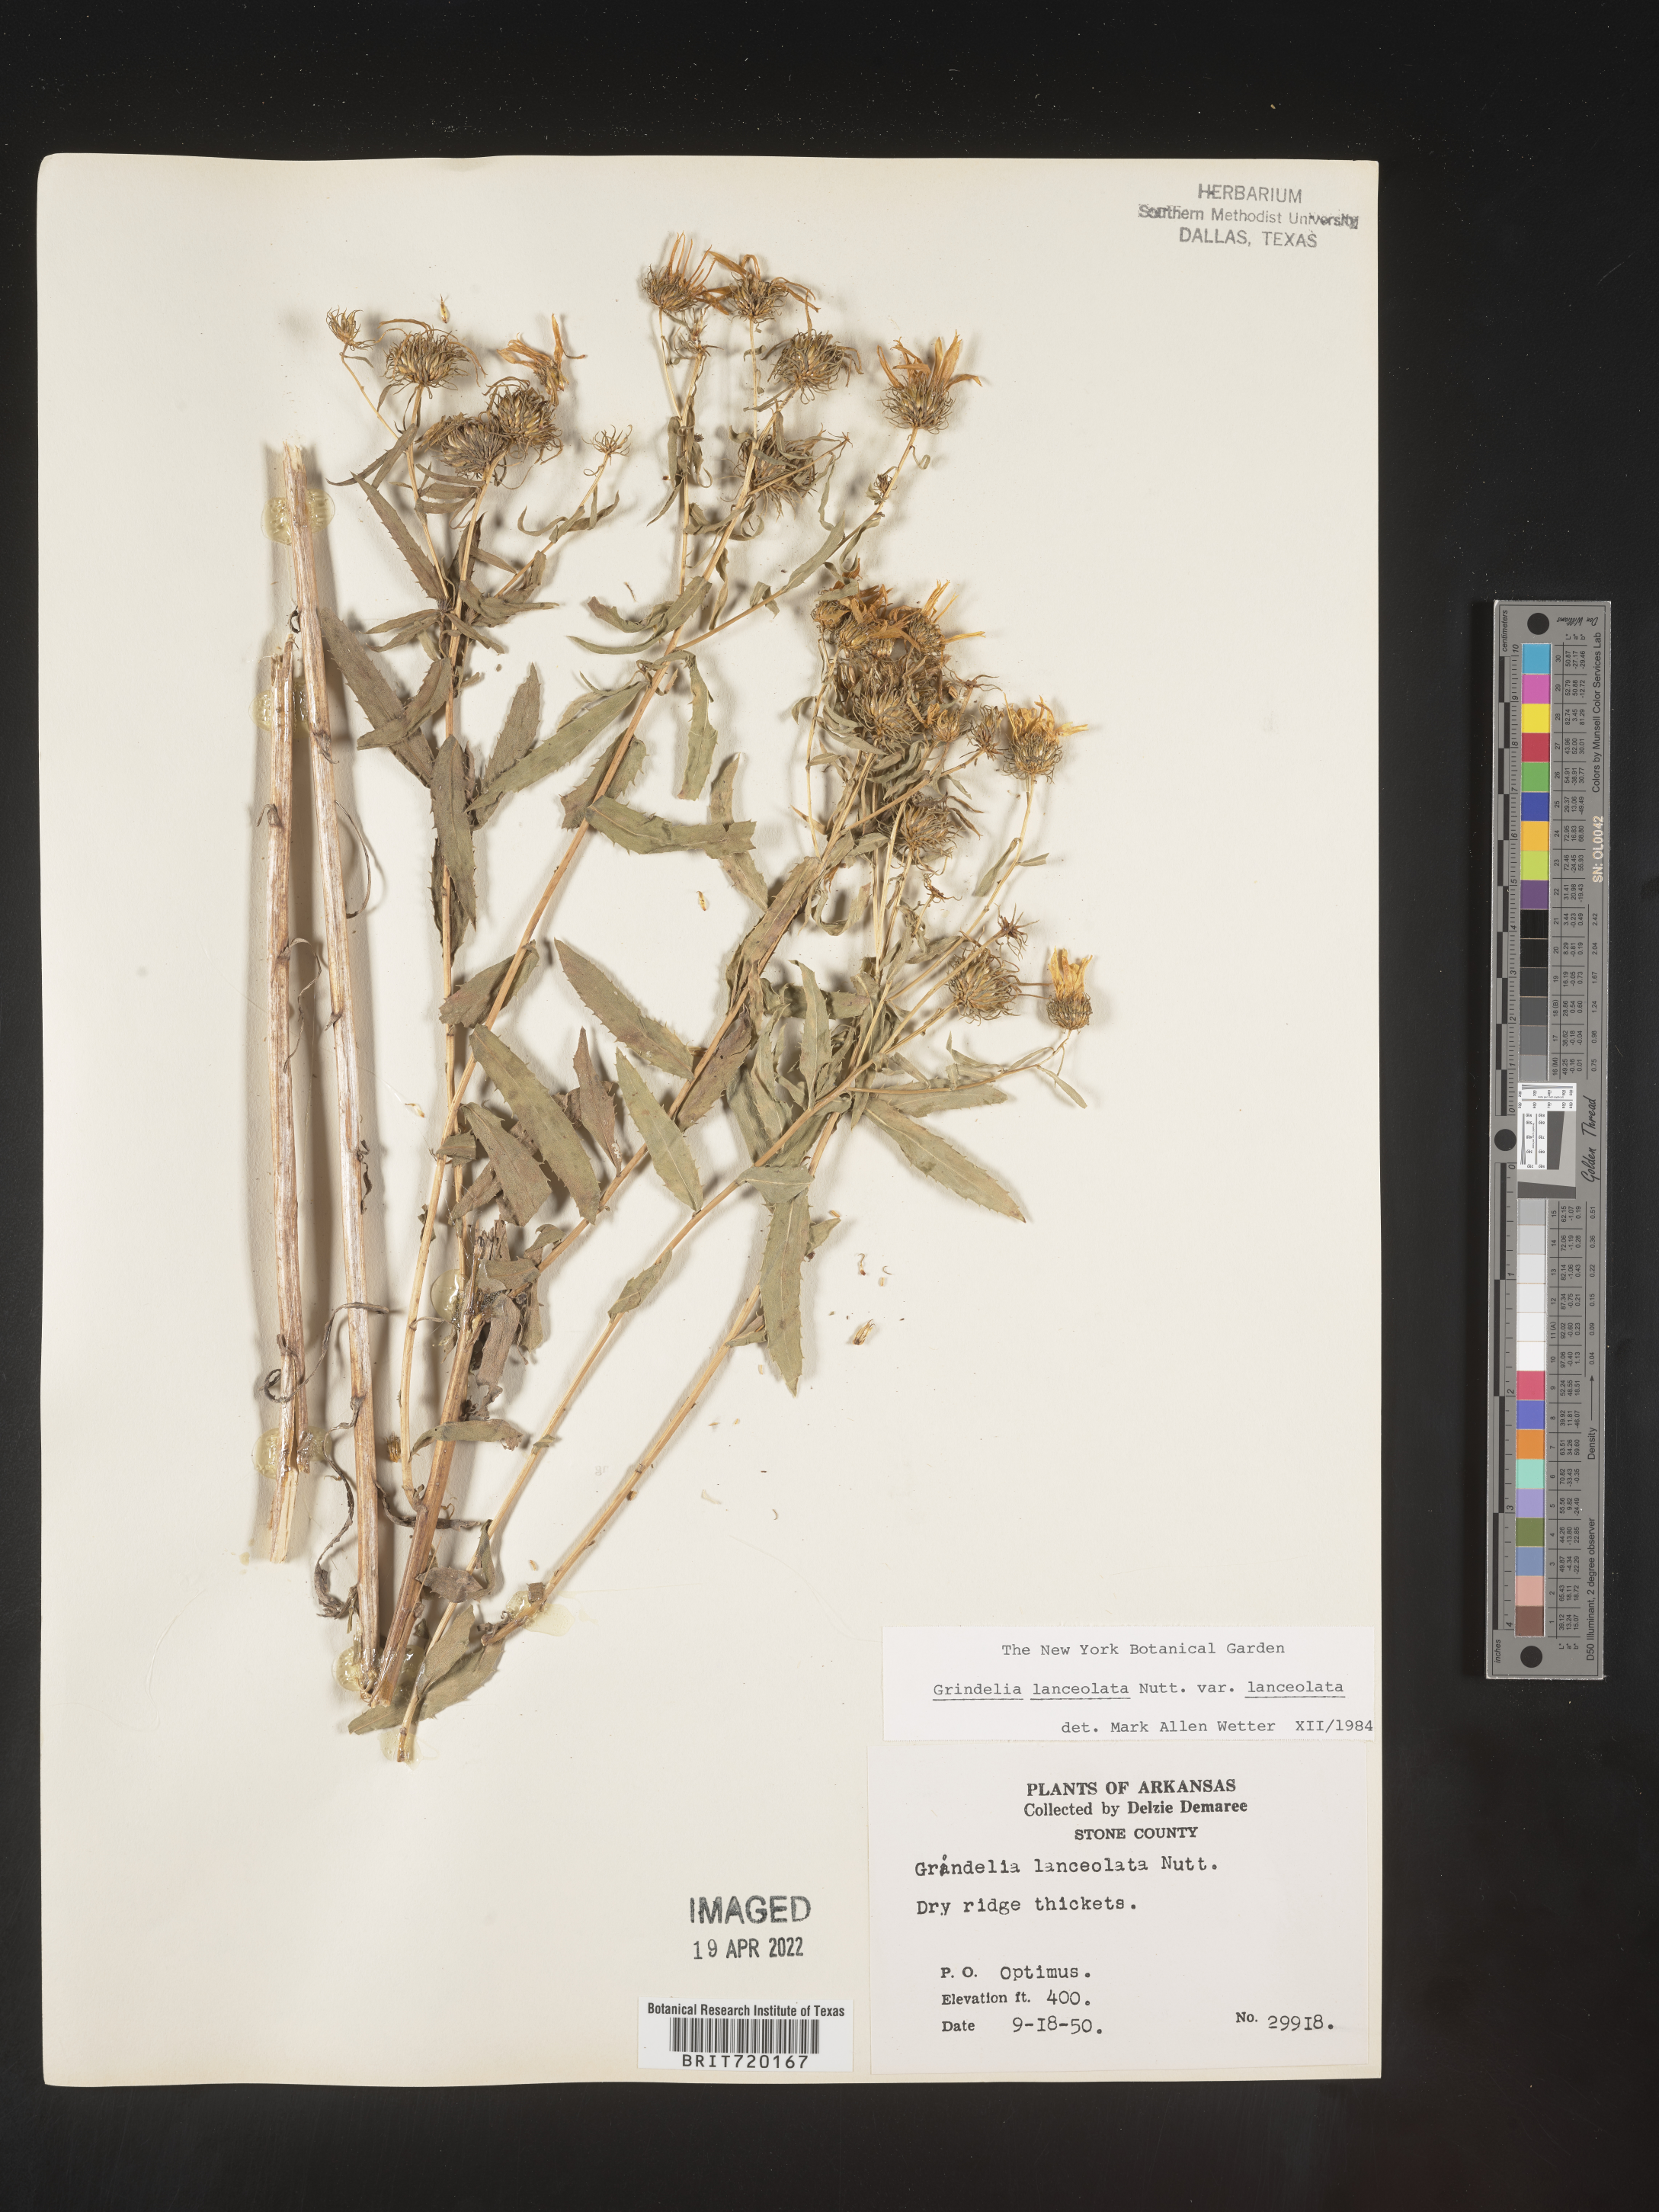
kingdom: Plantae
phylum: Tracheophyta
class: Magnoliopsida
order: Asterales
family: Asteraceae
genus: Grindelia
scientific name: Grindelia lanceolata
